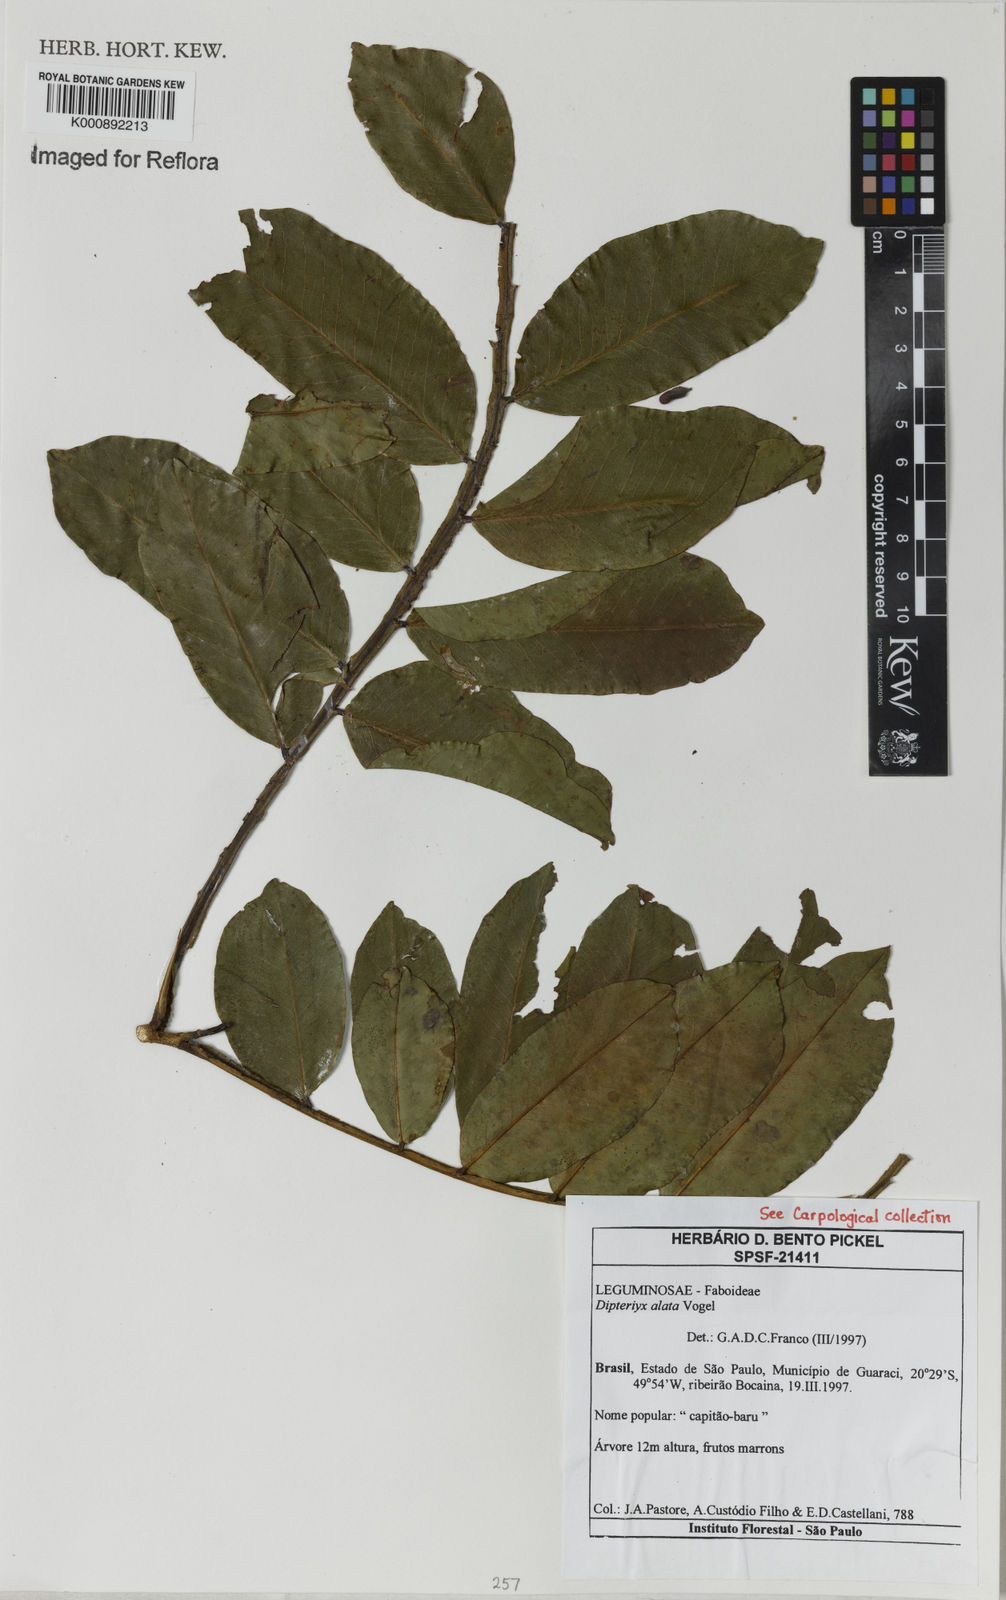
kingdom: Plantae
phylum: Tracheophyta
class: Magnoliopsida
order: Fabales
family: Fabaceae
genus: Dipteryx
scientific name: Dipteryx alata
